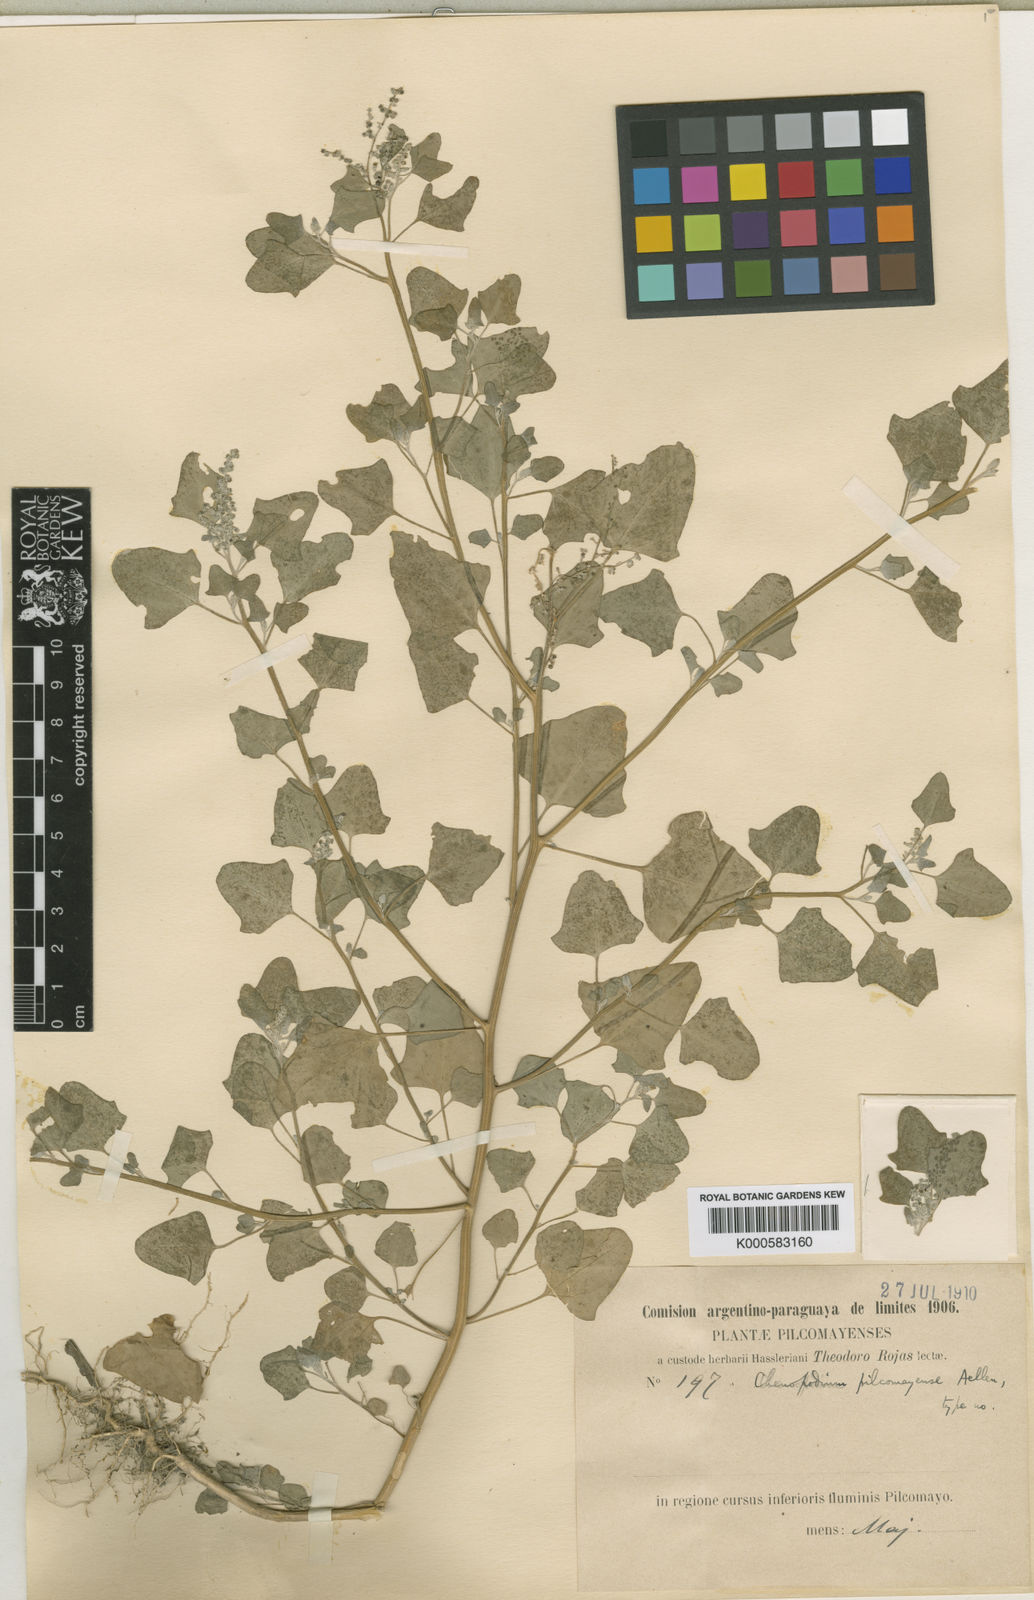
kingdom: Plantae
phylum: Tracheophyta
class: Magnoliopsida
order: Caryophyllales
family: Amaranthaceae
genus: Chenopodium
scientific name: Chenopodium pilcomayense
